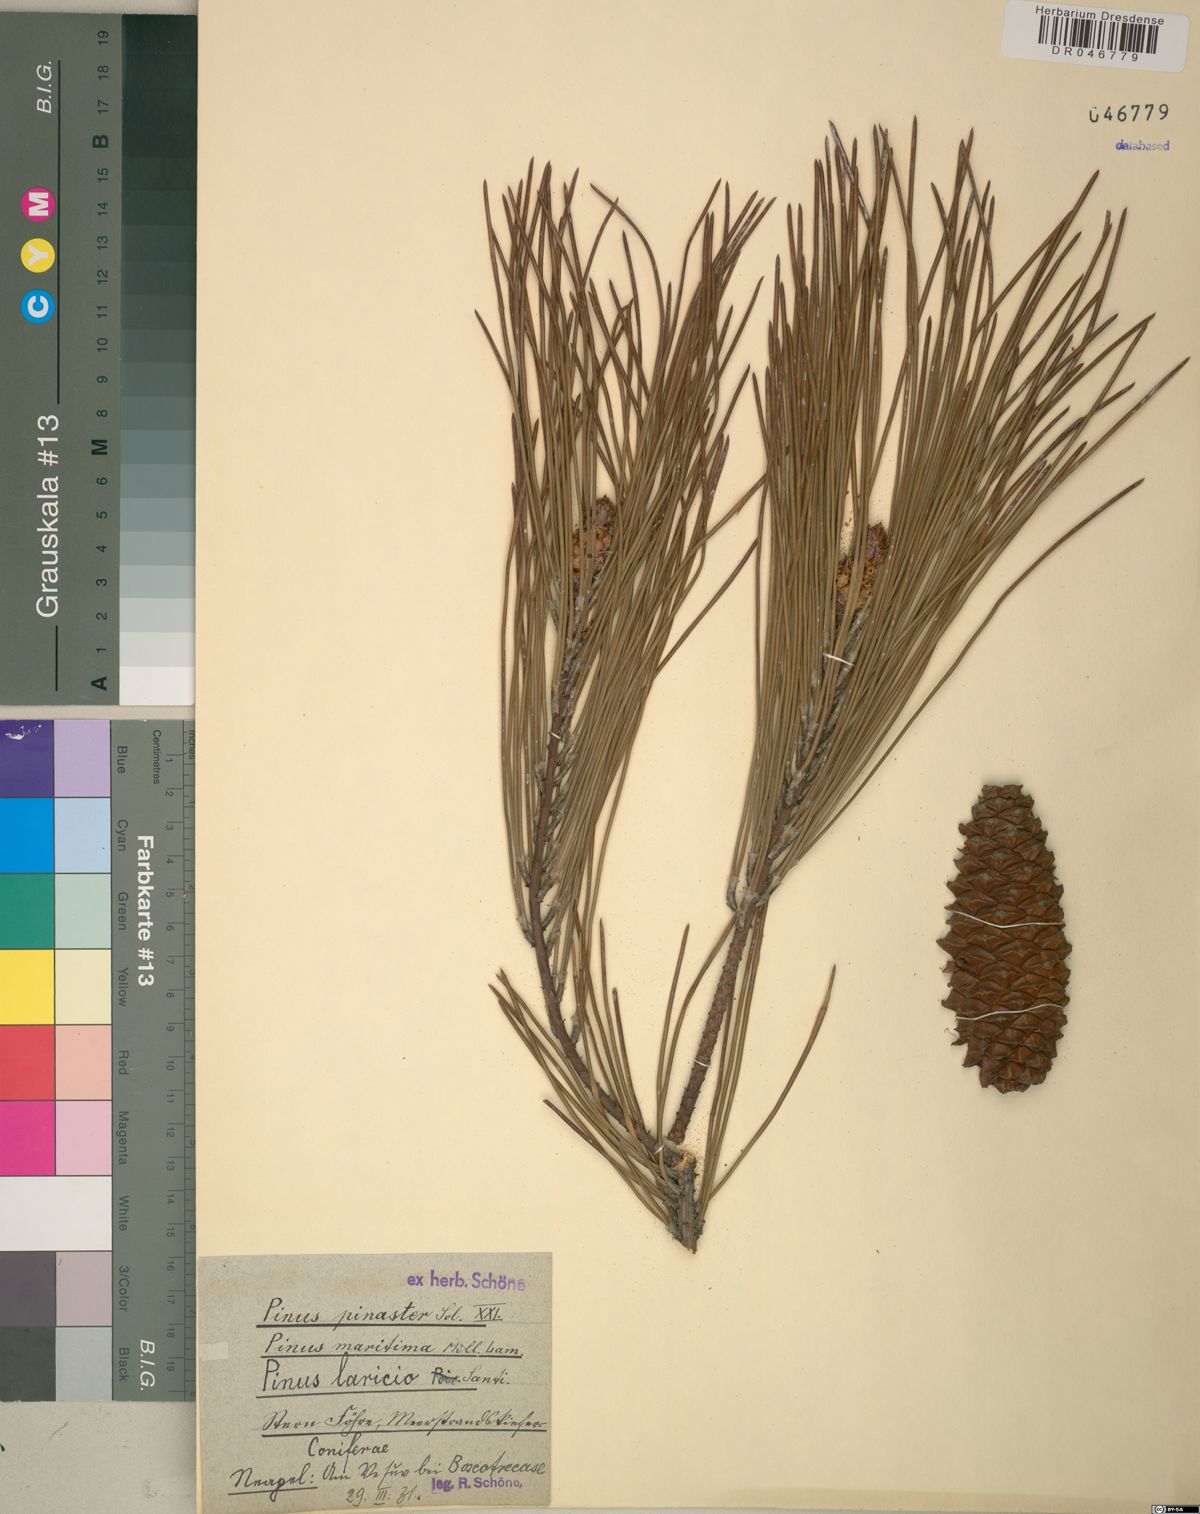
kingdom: Plantae
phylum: Tracheophyta
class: Pinopsida
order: Pinales
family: Pinaceae
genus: Pinus
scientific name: Pinus pinaster
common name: Maritime pine
